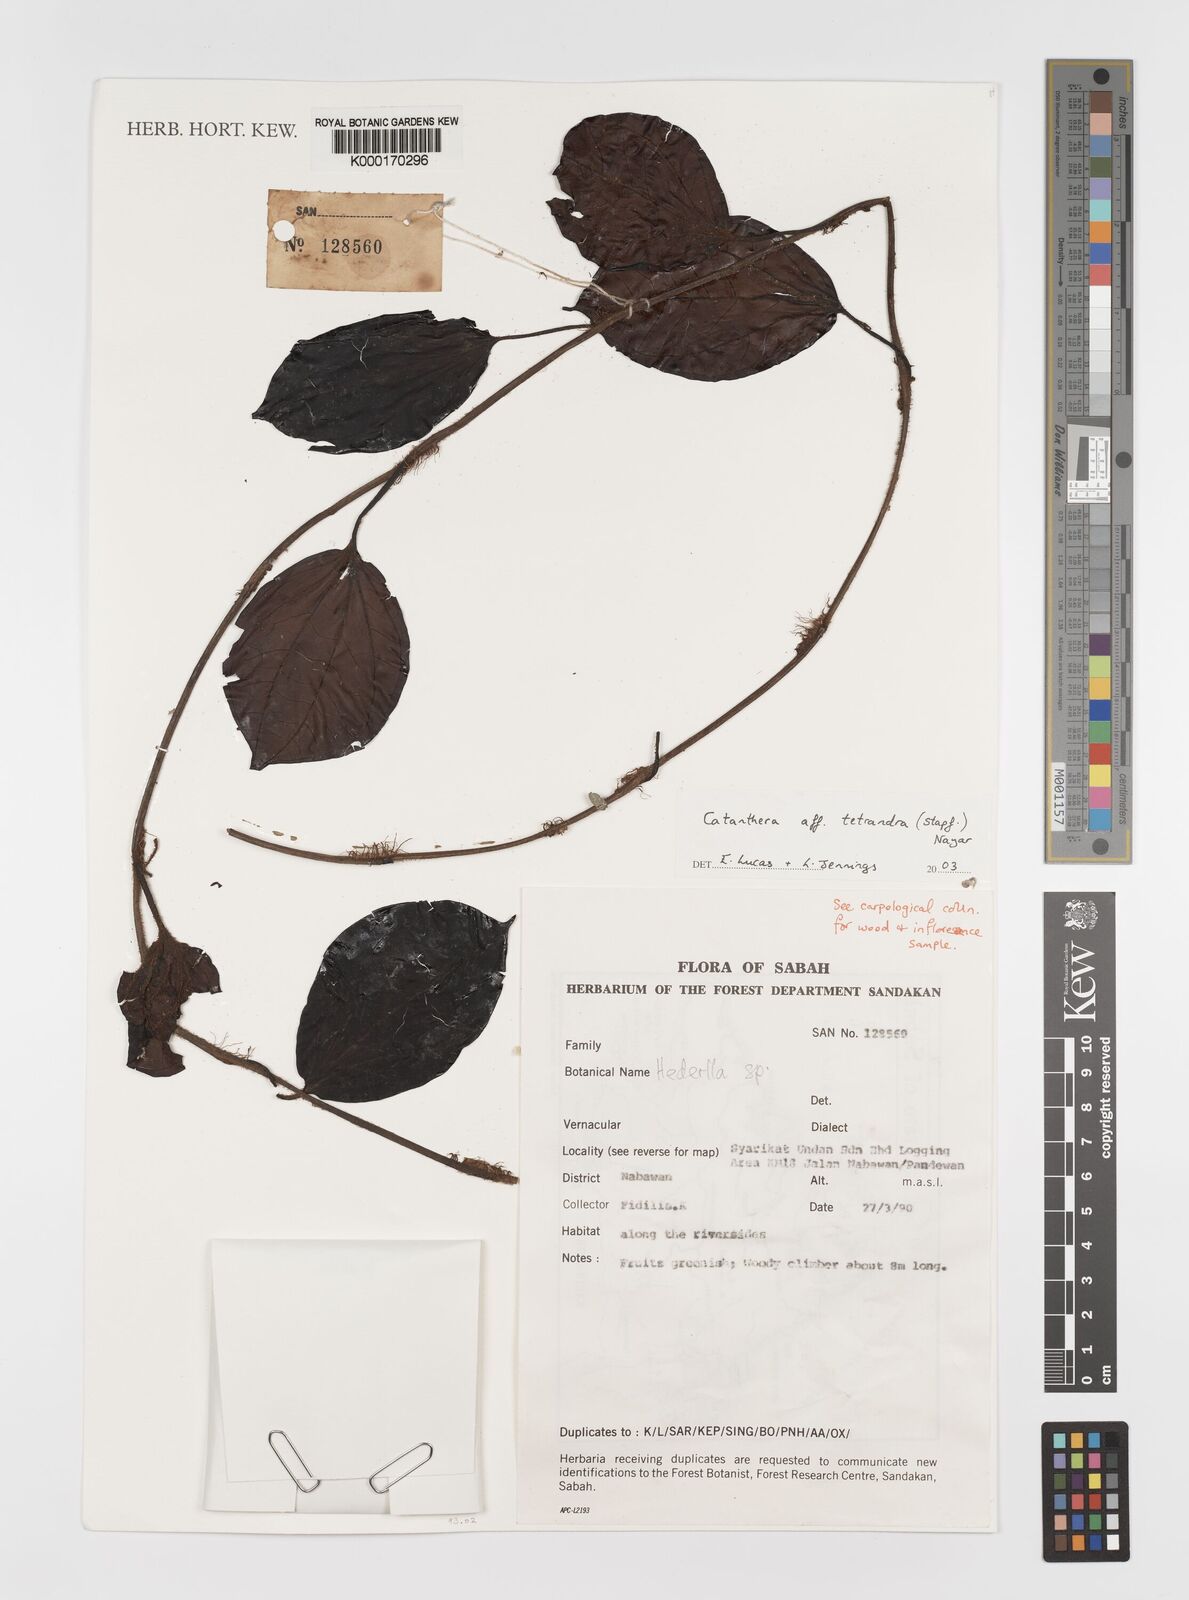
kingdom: Plantae
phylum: Tracheophyta
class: Magnoliopsida
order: Myrtales
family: Melastomataceae
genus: Catanthera
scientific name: Catanthera tetrandra
